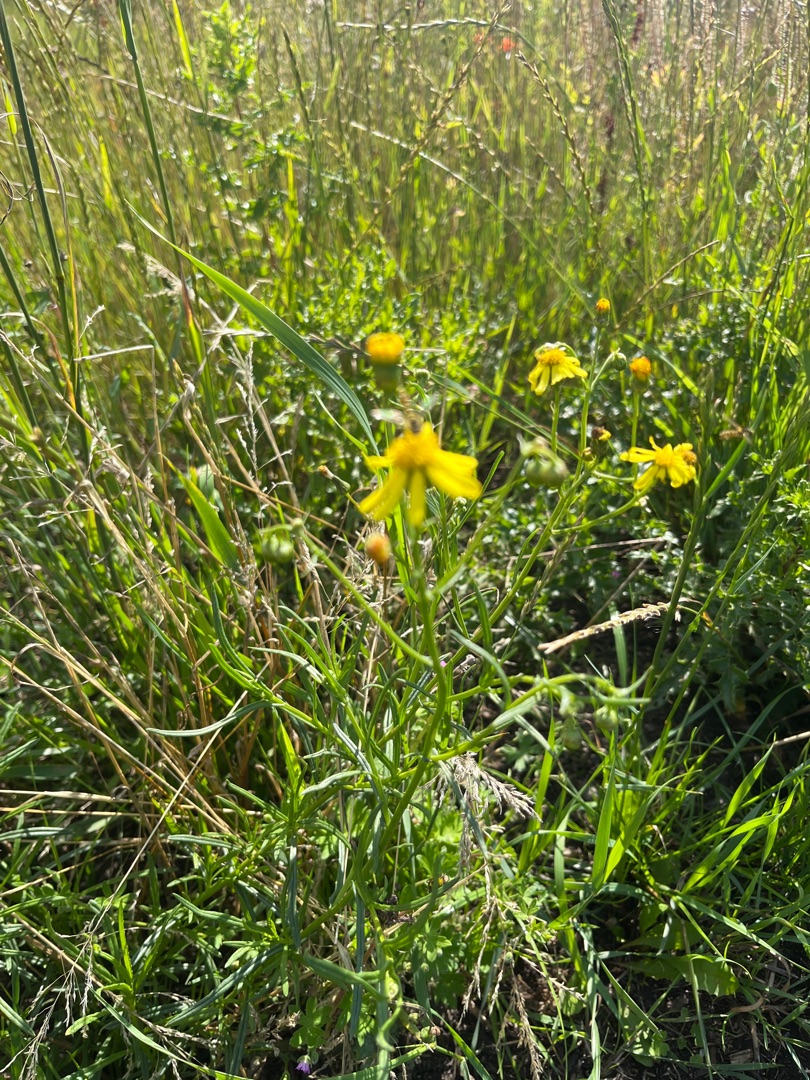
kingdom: Plantae
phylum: Tracheophyta
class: Magnoliopsida
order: Asterales
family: Asteraceae
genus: Senecio
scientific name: Senecio inaequidens
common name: Smalbladet brandbæger
